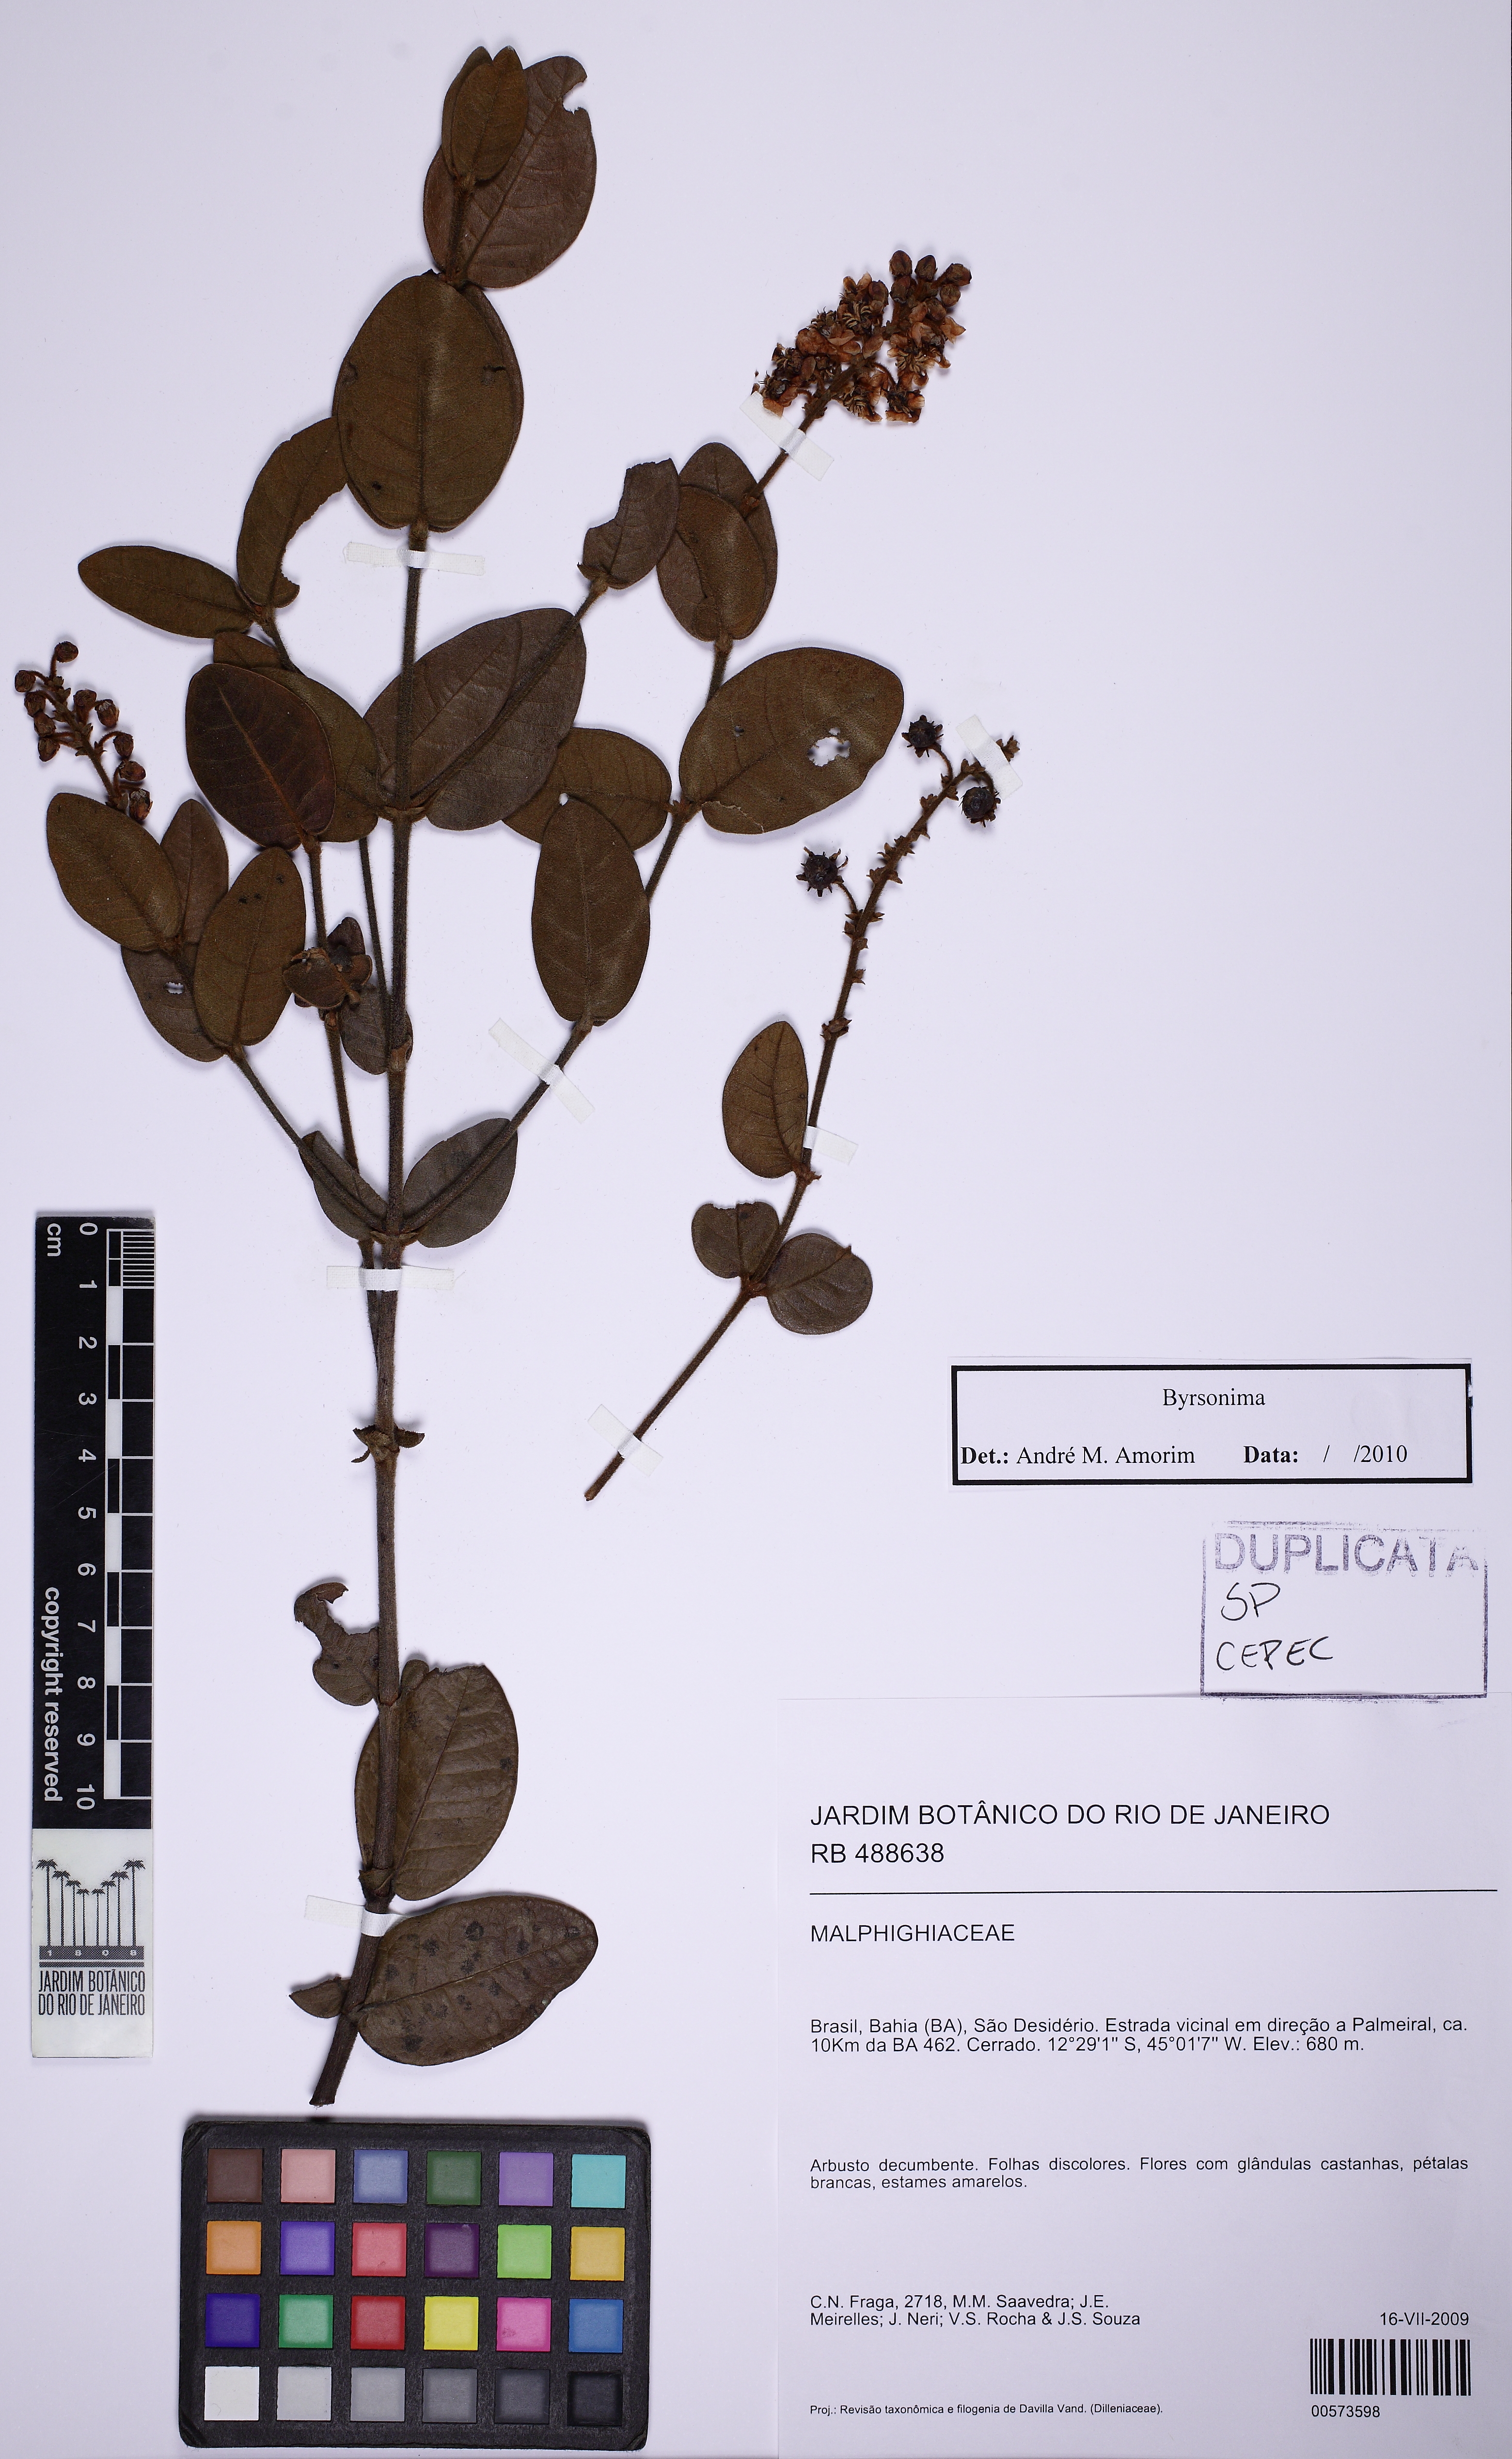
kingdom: Plantae
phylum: Tracheophyta
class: Magnoliopsida
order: Malpighiales
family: Malpighiaceae
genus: Byrsonima
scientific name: Byrsonima
